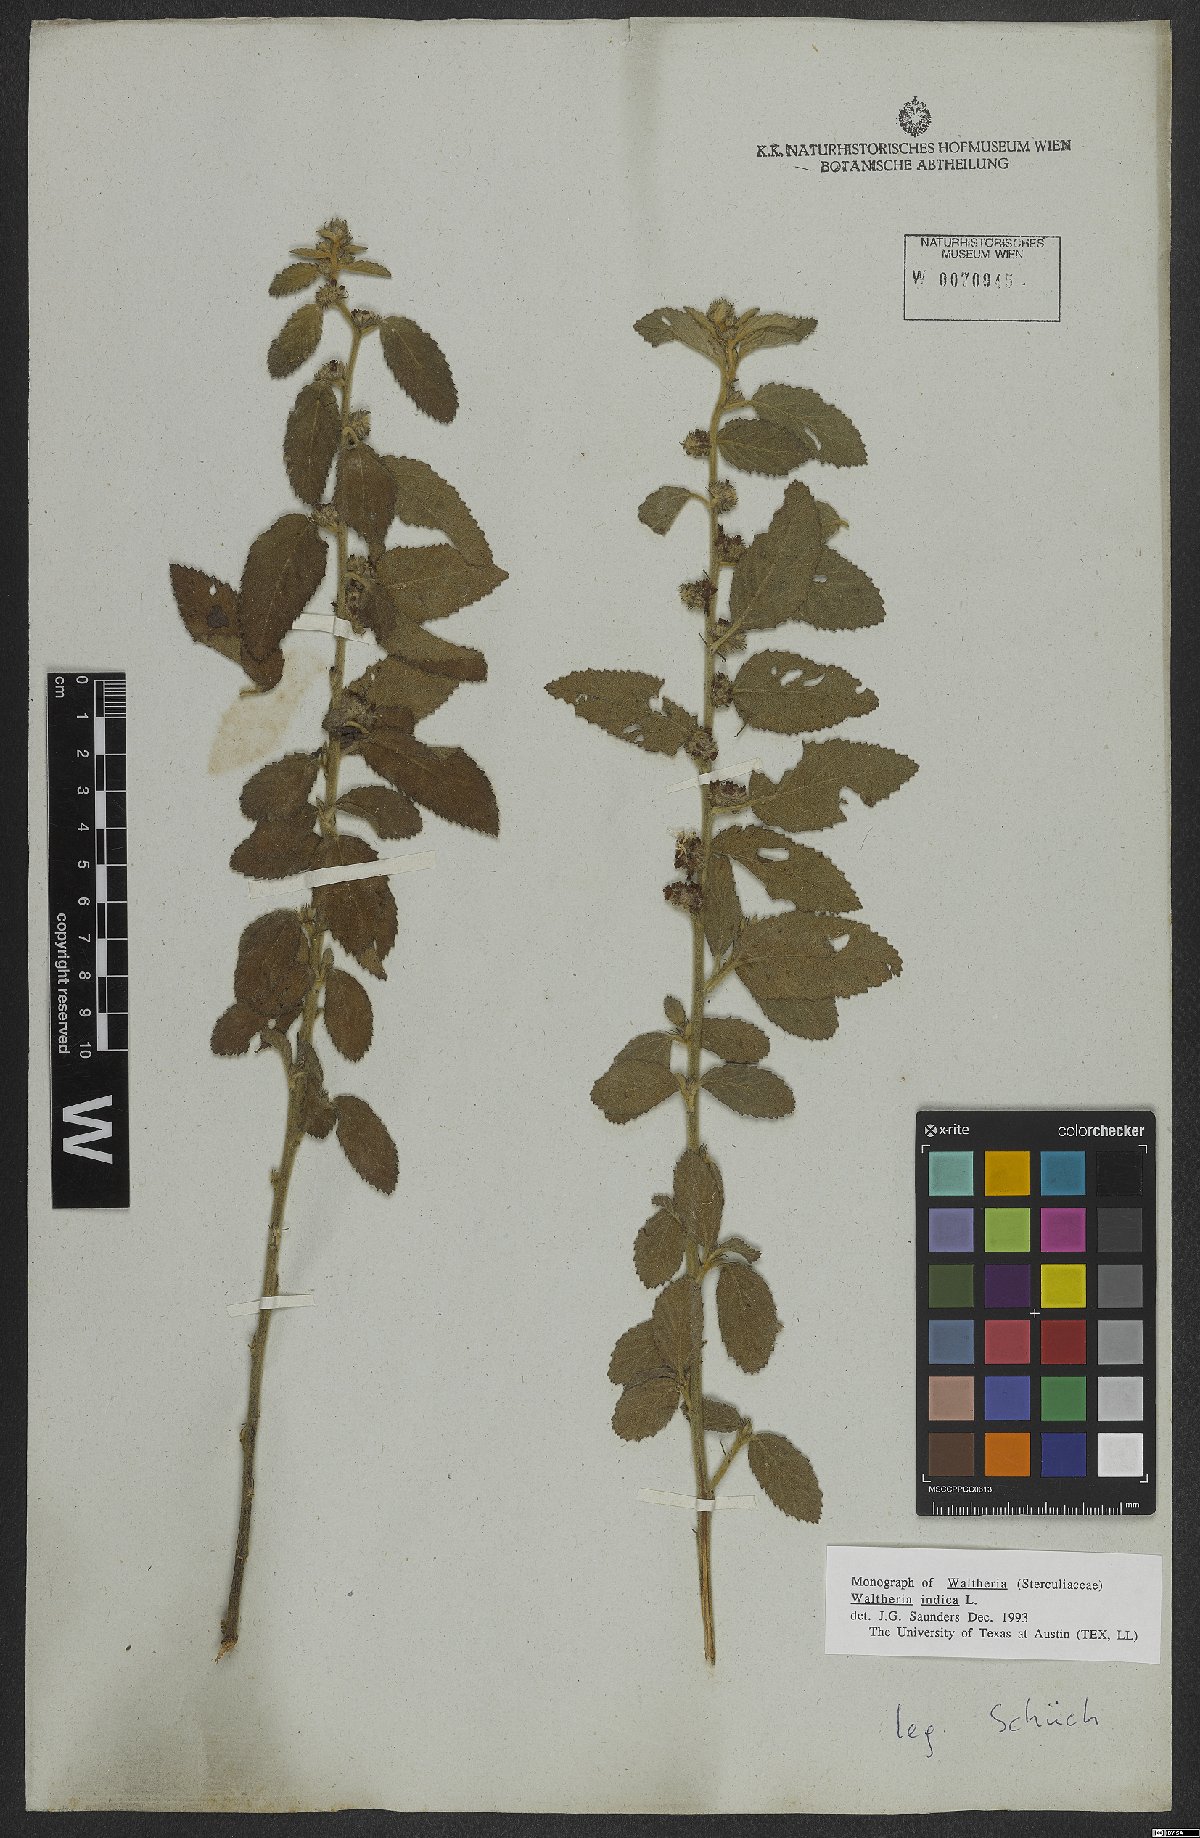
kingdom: Plantae
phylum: Tracheophyta
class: Magnoliopsida
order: Malvales
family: Malvaceae
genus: Waltheria
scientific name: Waltheria indica
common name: Leather-coat
